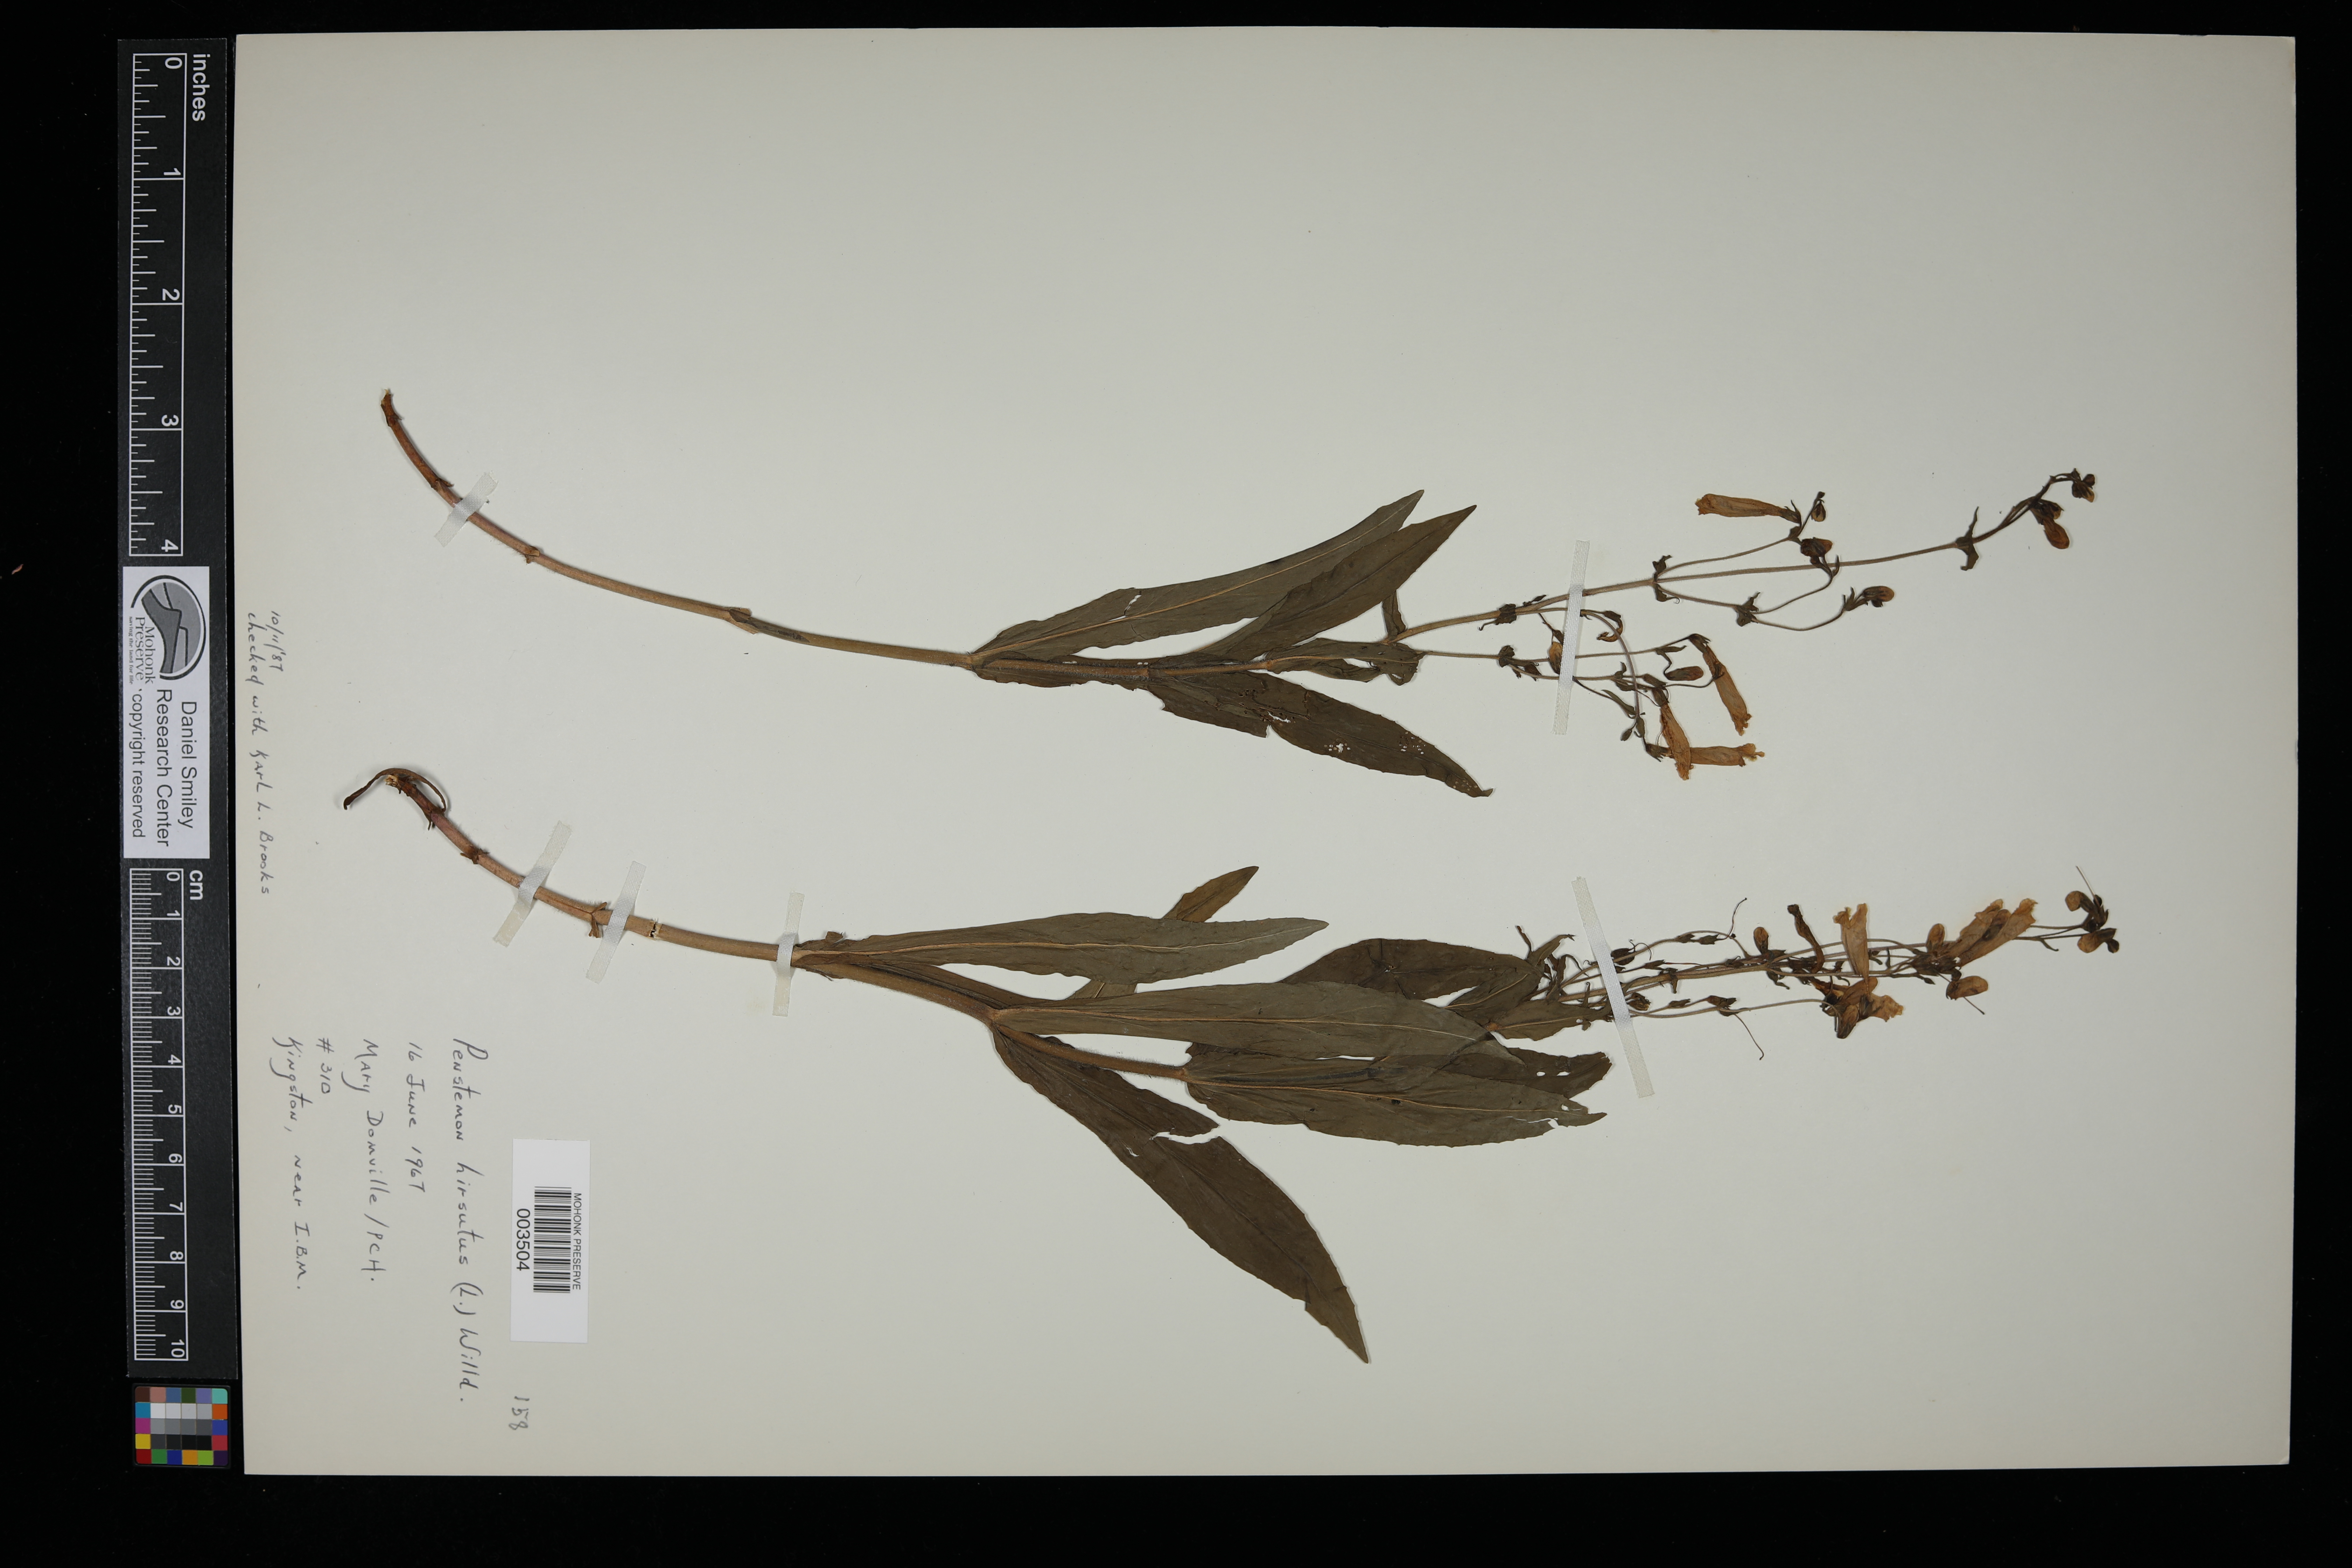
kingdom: Plantae
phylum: Tracheophyta
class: Magnoliopsida
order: Lamiales
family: Plantaginaceae
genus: Penstemon
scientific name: Penstemon hirsutus
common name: Hairy beardtongue
